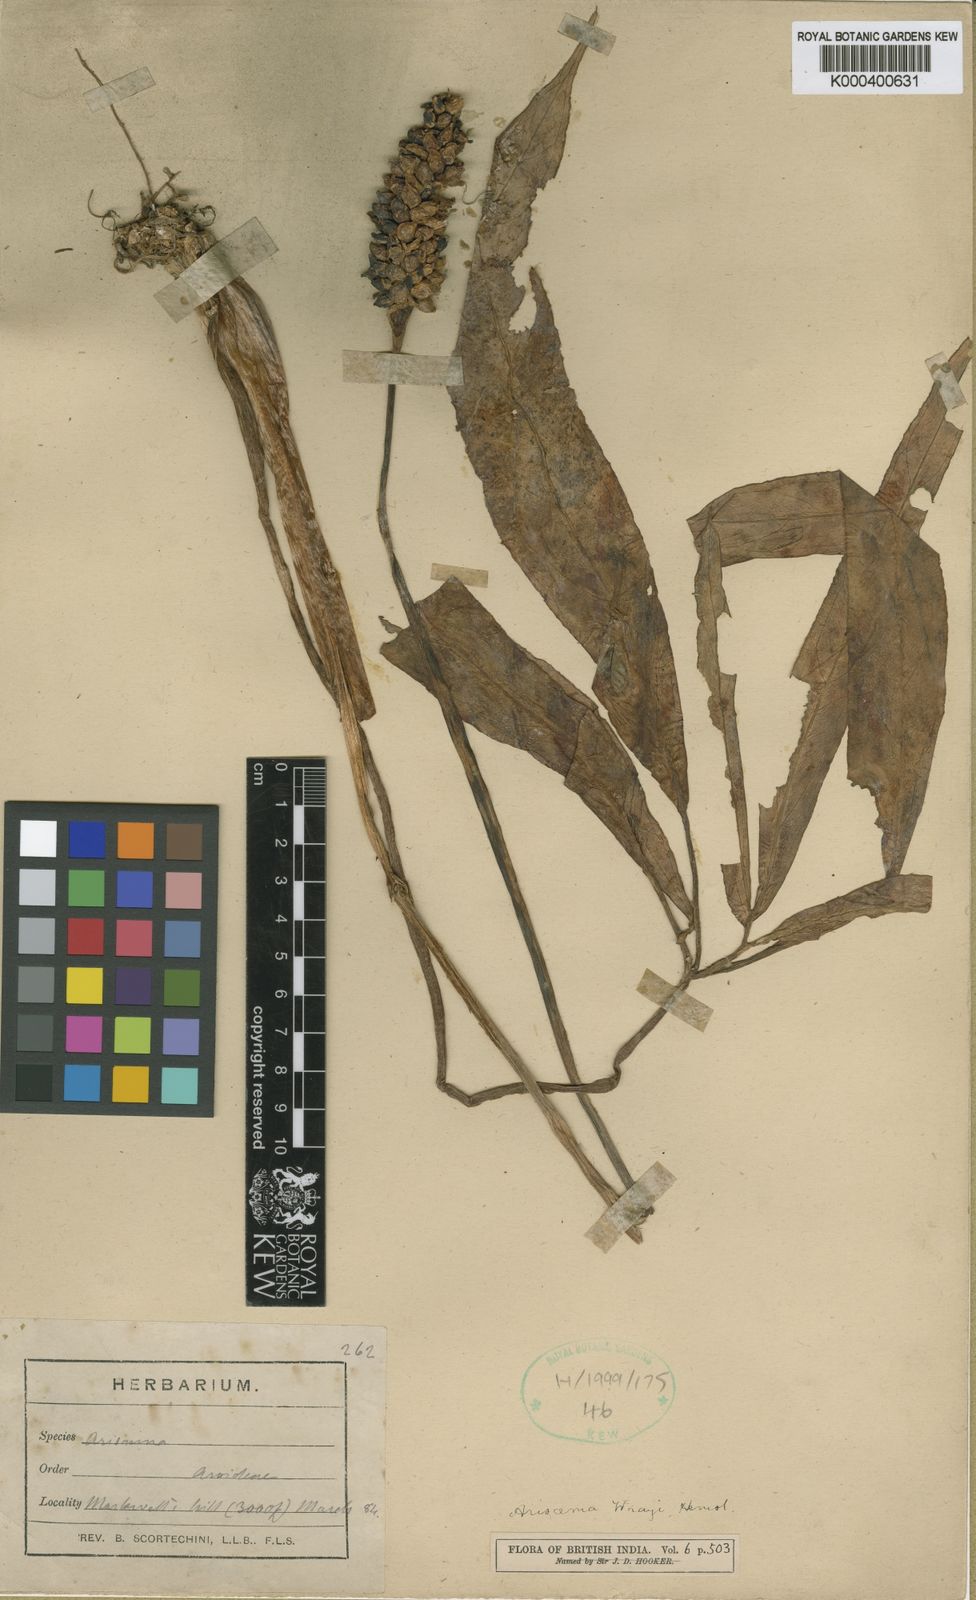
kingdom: Plantae
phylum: Tracheophyta
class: Liliopsida
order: Alismatales
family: Araceae
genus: Arisaema
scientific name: Arisaema wrayi
